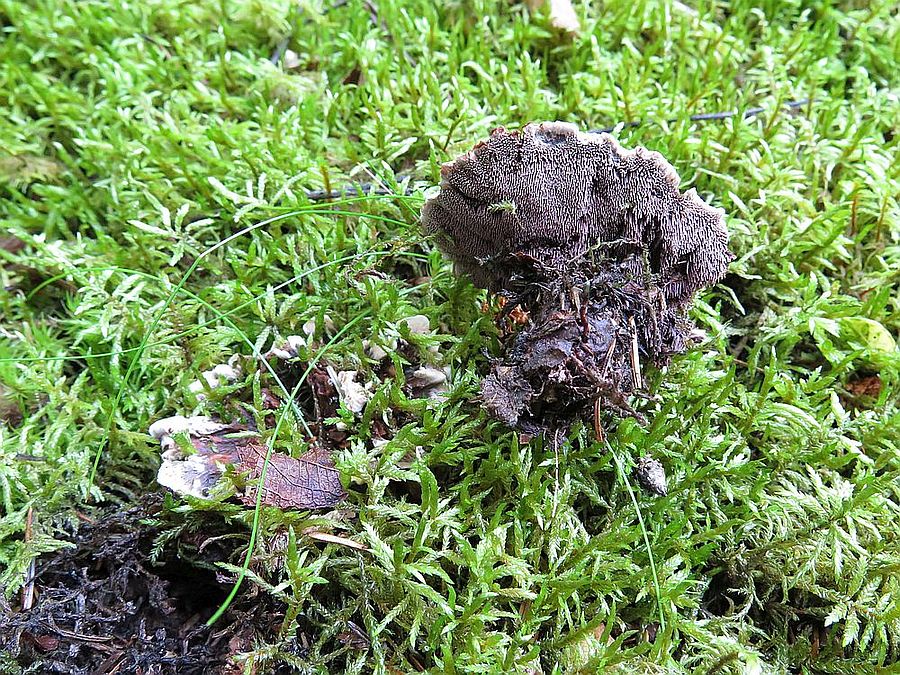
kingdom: Fungi
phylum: Basidiomycota
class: Agaricomycetes
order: Thelephorales
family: Thelephoraceae
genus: Phellodon
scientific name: Phellodon tomentosus
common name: vellugtende duftpigsvamp
